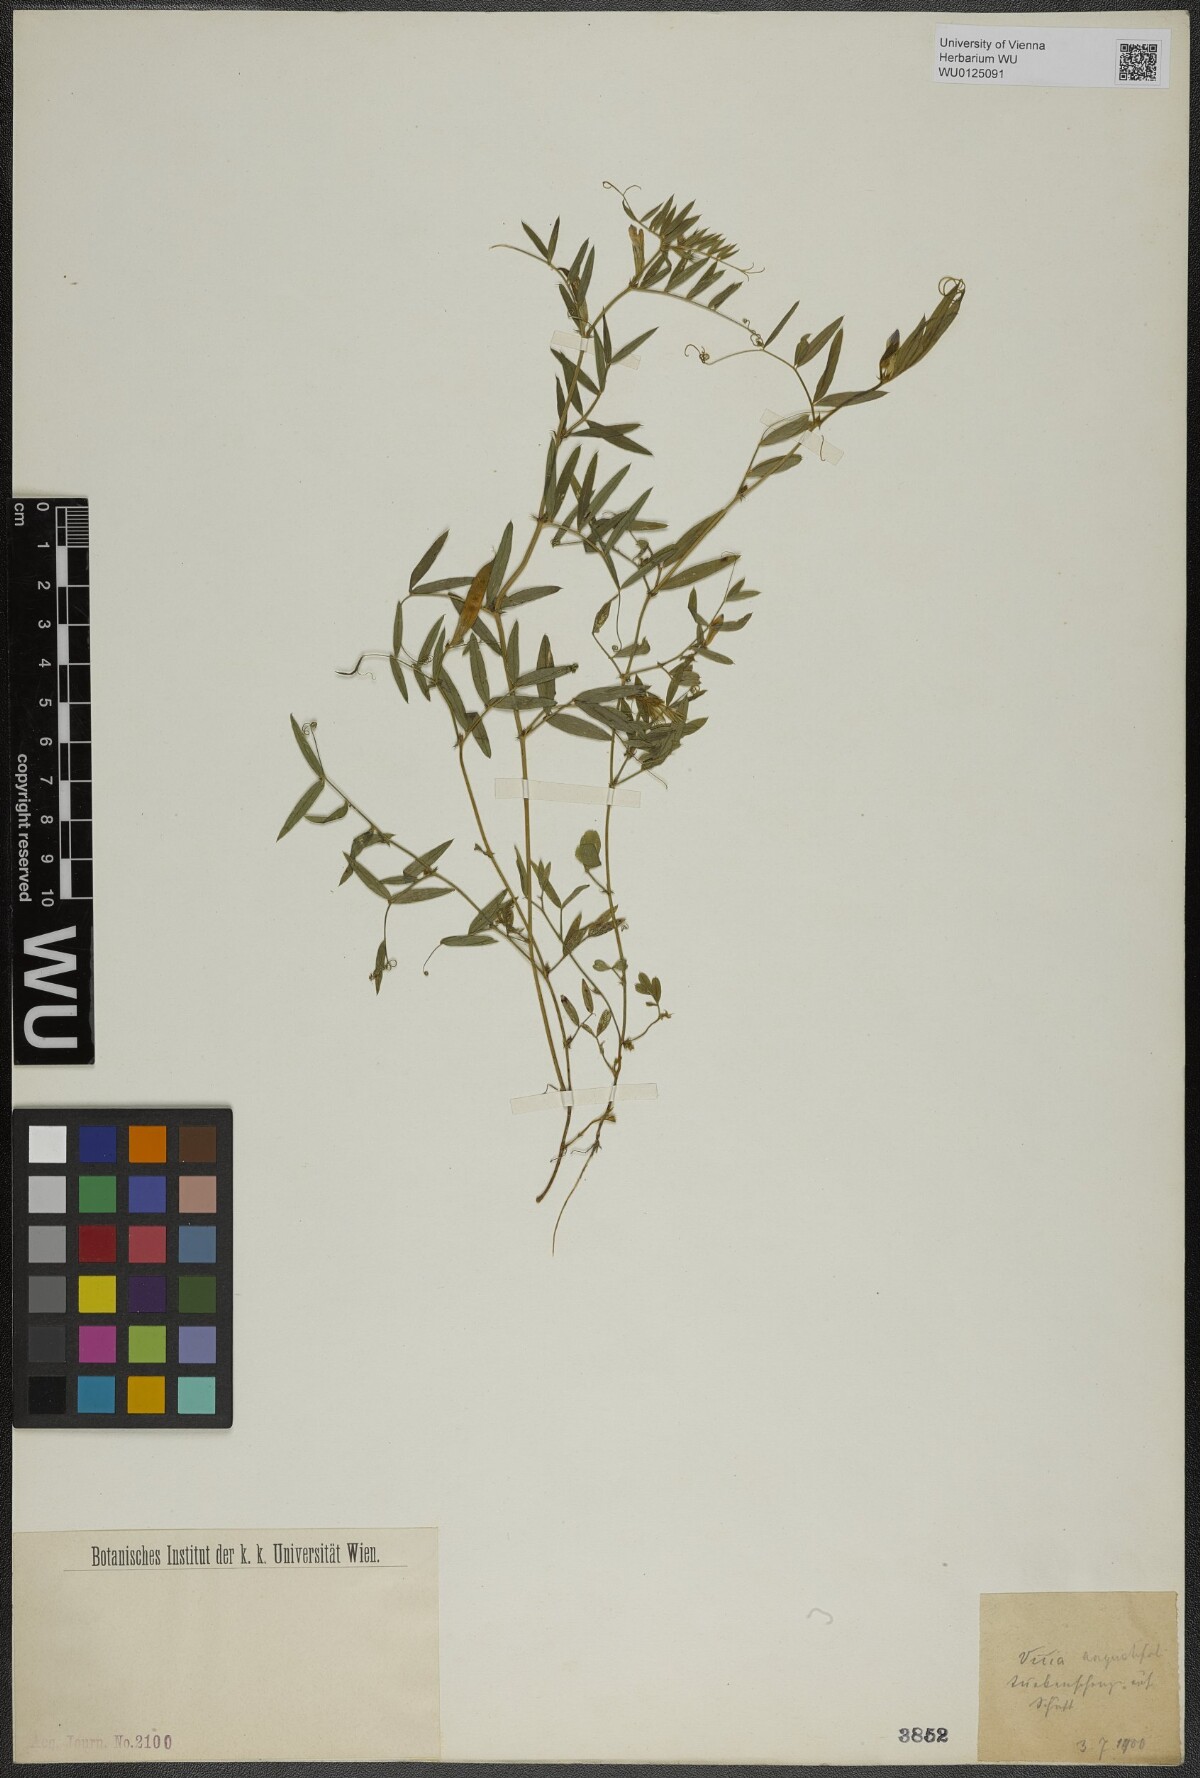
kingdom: Plantae
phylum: Tracheophyta
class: Magnoliopsida
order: Fabales
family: Fabaceae
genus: Vicia
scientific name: Vicia sativa
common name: Garden vetch
